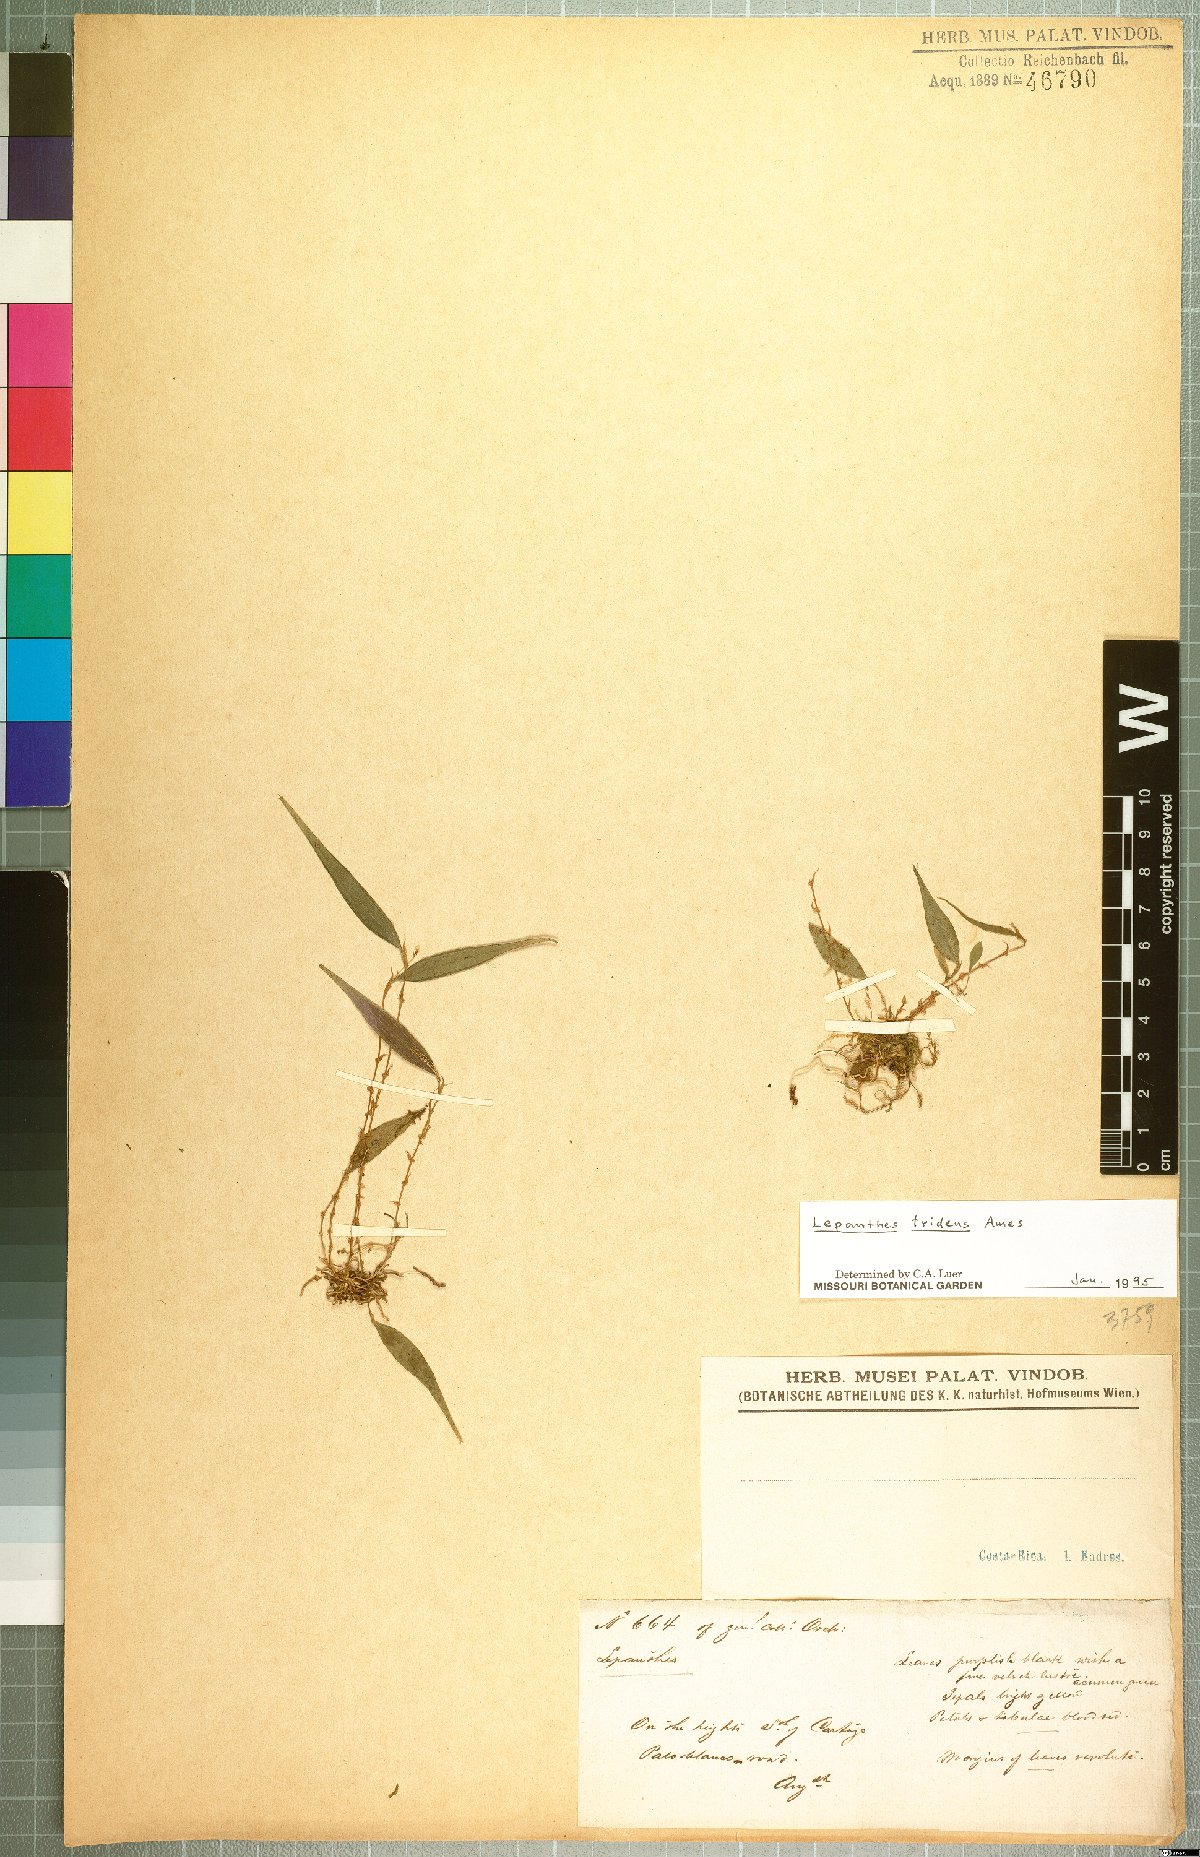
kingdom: Plantae
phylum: Tracheophyta
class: Liliopsida
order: Asparagales
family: Orchidaceae
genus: Lepanthes
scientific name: Lepanthes tridens
